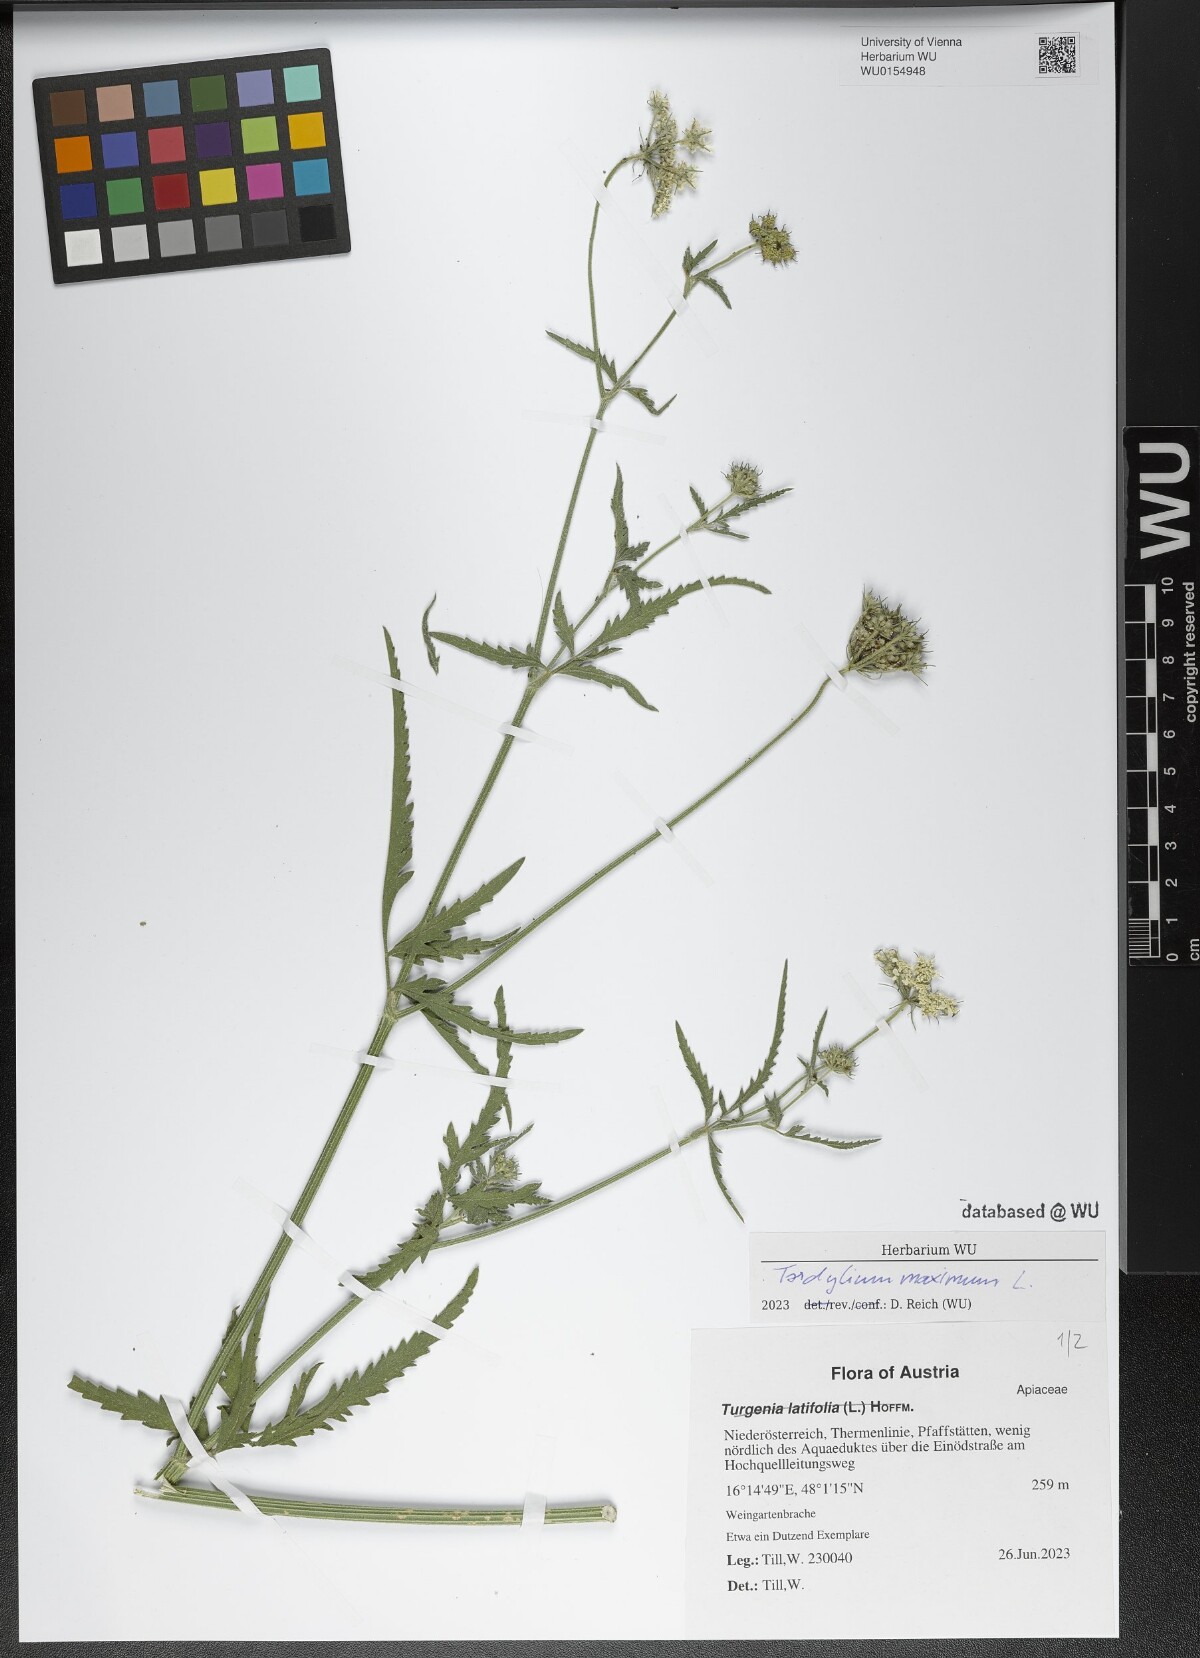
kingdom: Plantae
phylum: Tracheophyta
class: Magnoliopsida
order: Apiales
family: Apiaceae
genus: Tordylium
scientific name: Tordylium maximum
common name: Hartwort
